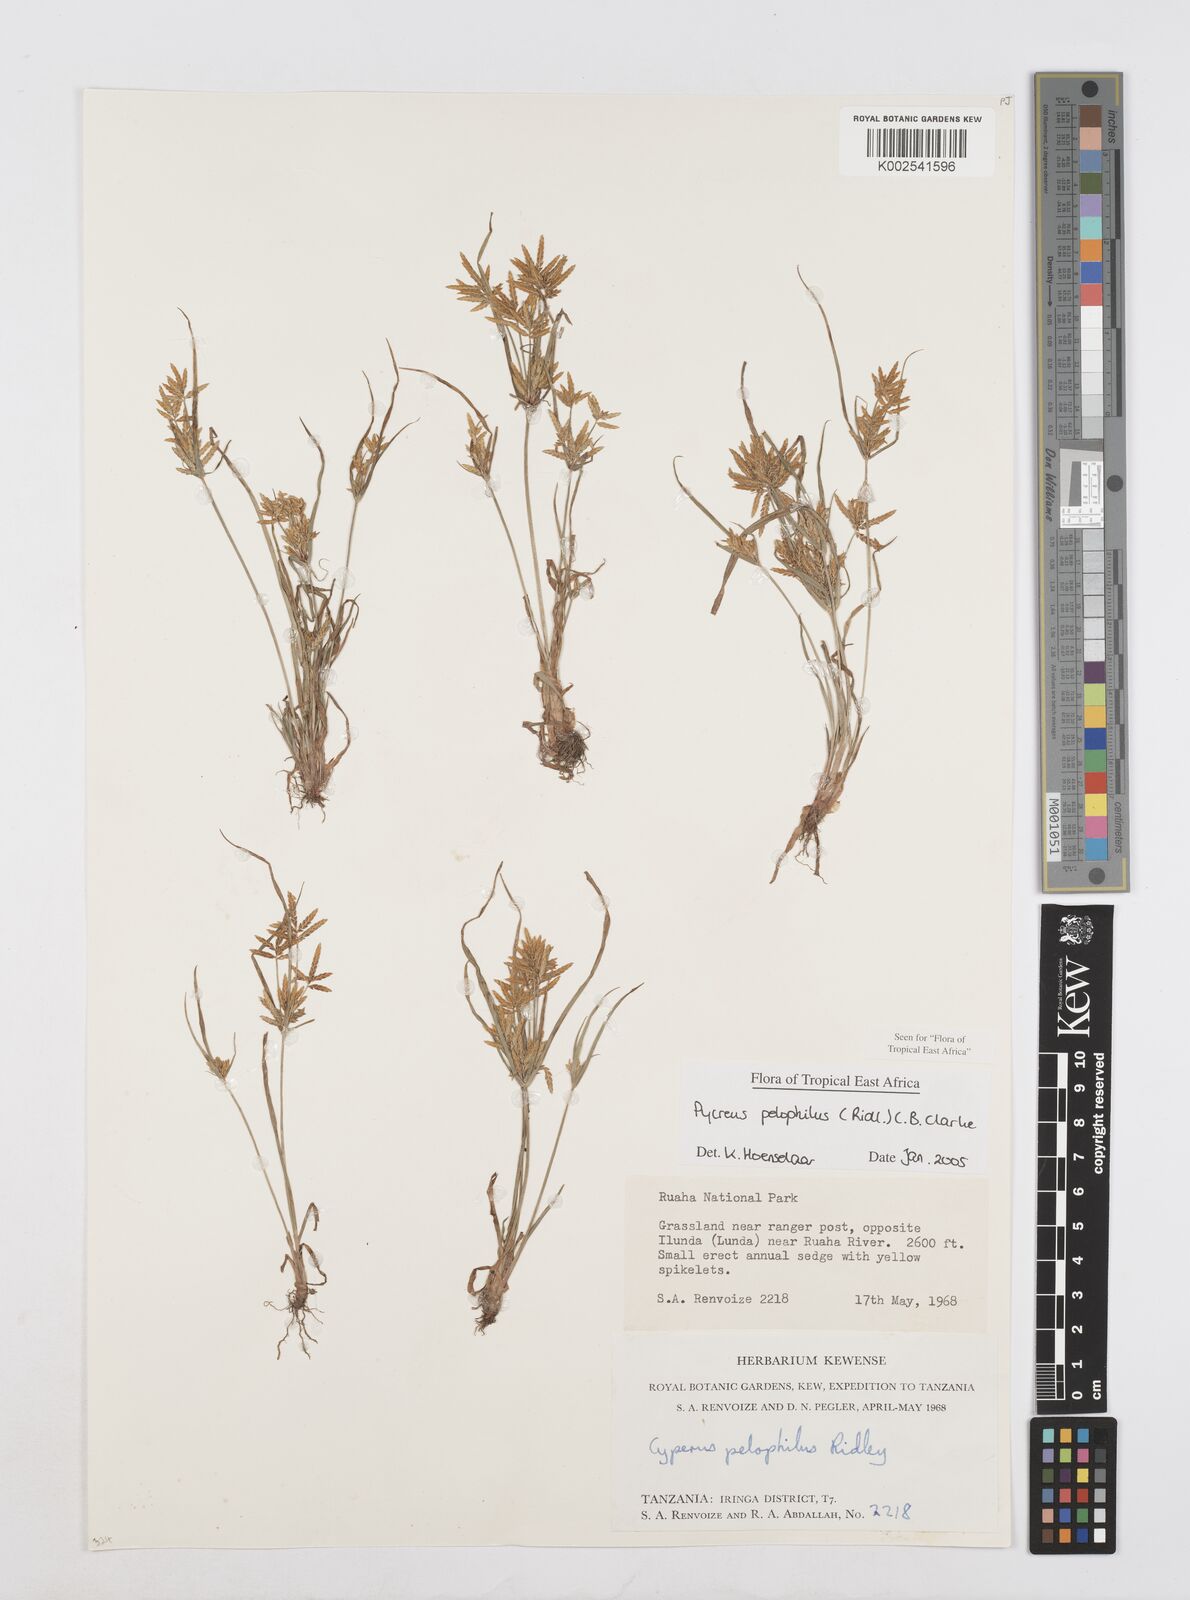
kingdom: Plantae
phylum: Tracheophyta
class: Liliopsida
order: Poales
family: Cyperaceae
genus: Cyperus
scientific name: Cyperus pelophilus
